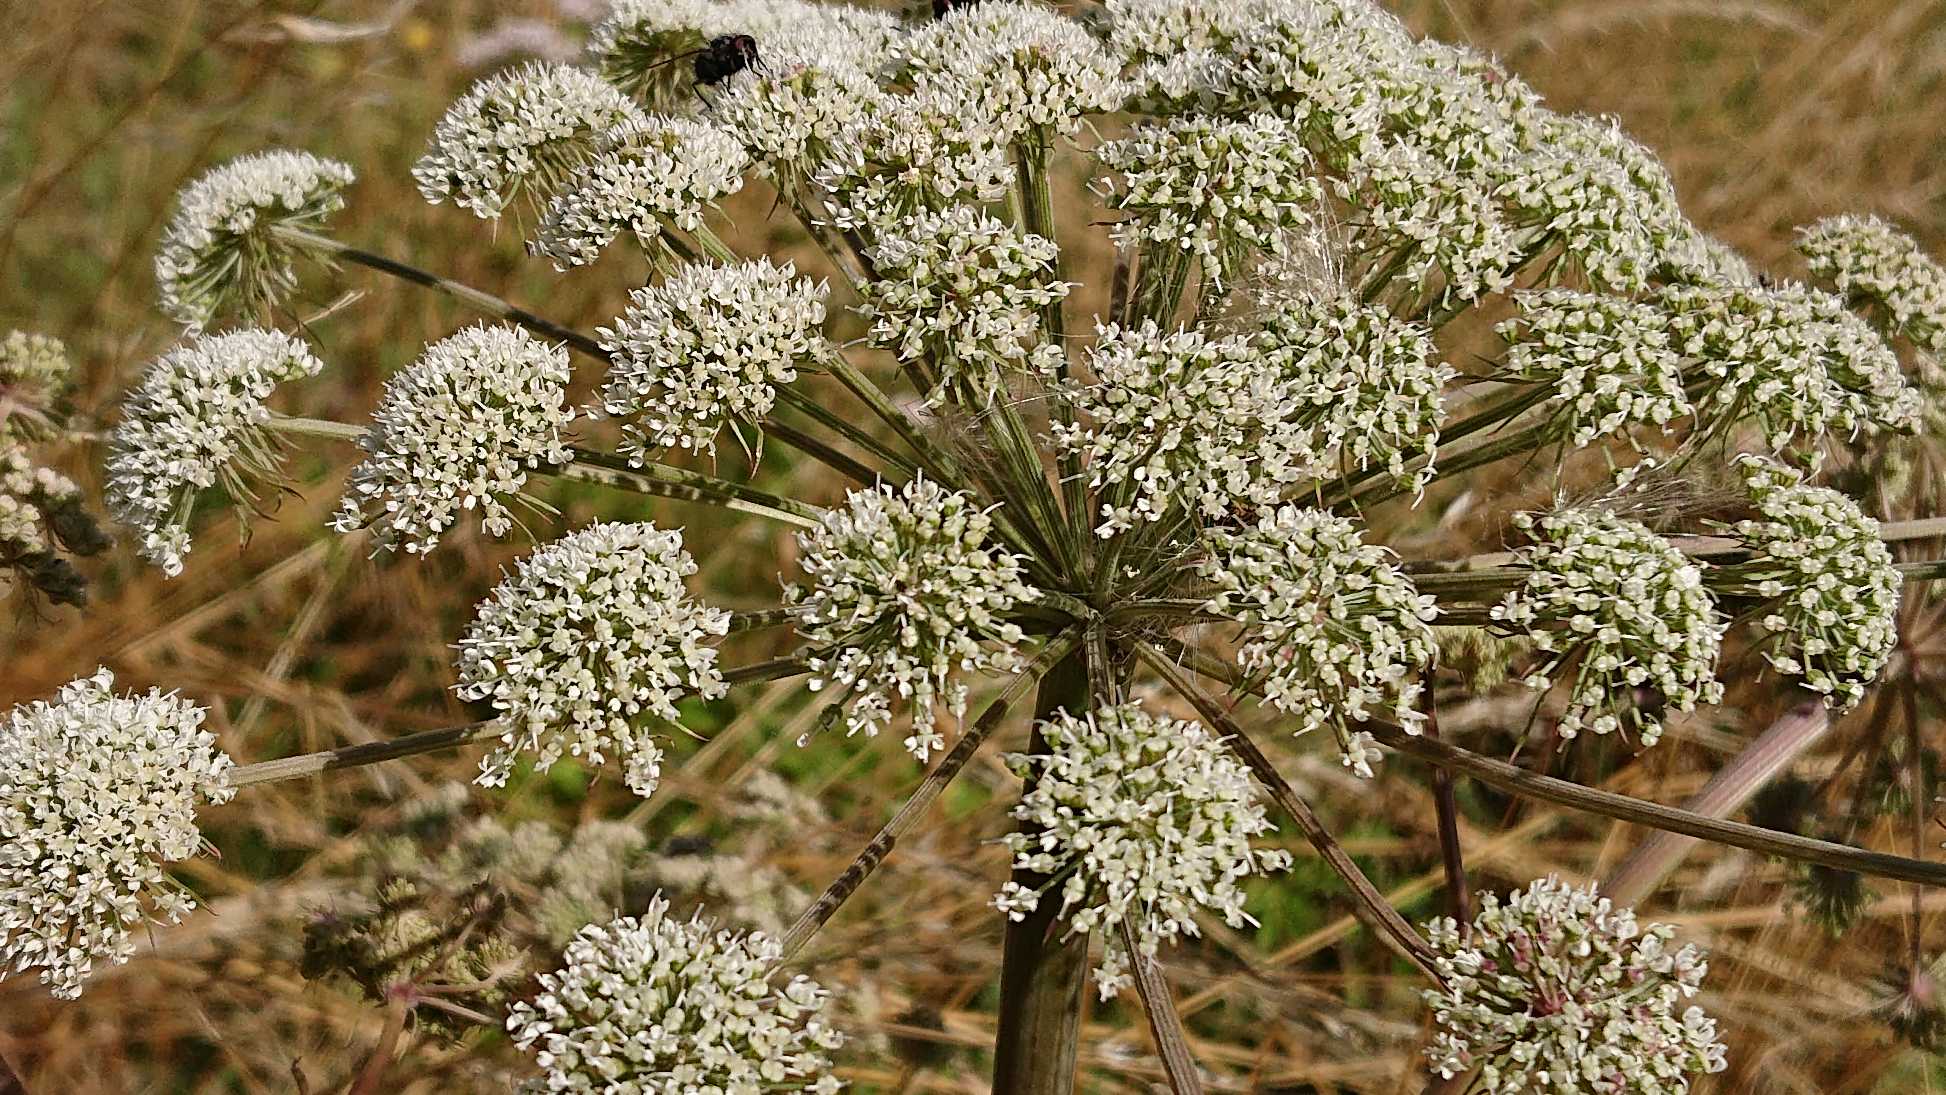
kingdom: Plantae
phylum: Tracheophyta
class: Magnoliopsida
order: Apiales
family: Apiaceae
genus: Angelica
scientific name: Angelica sylvestris
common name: Angelik
